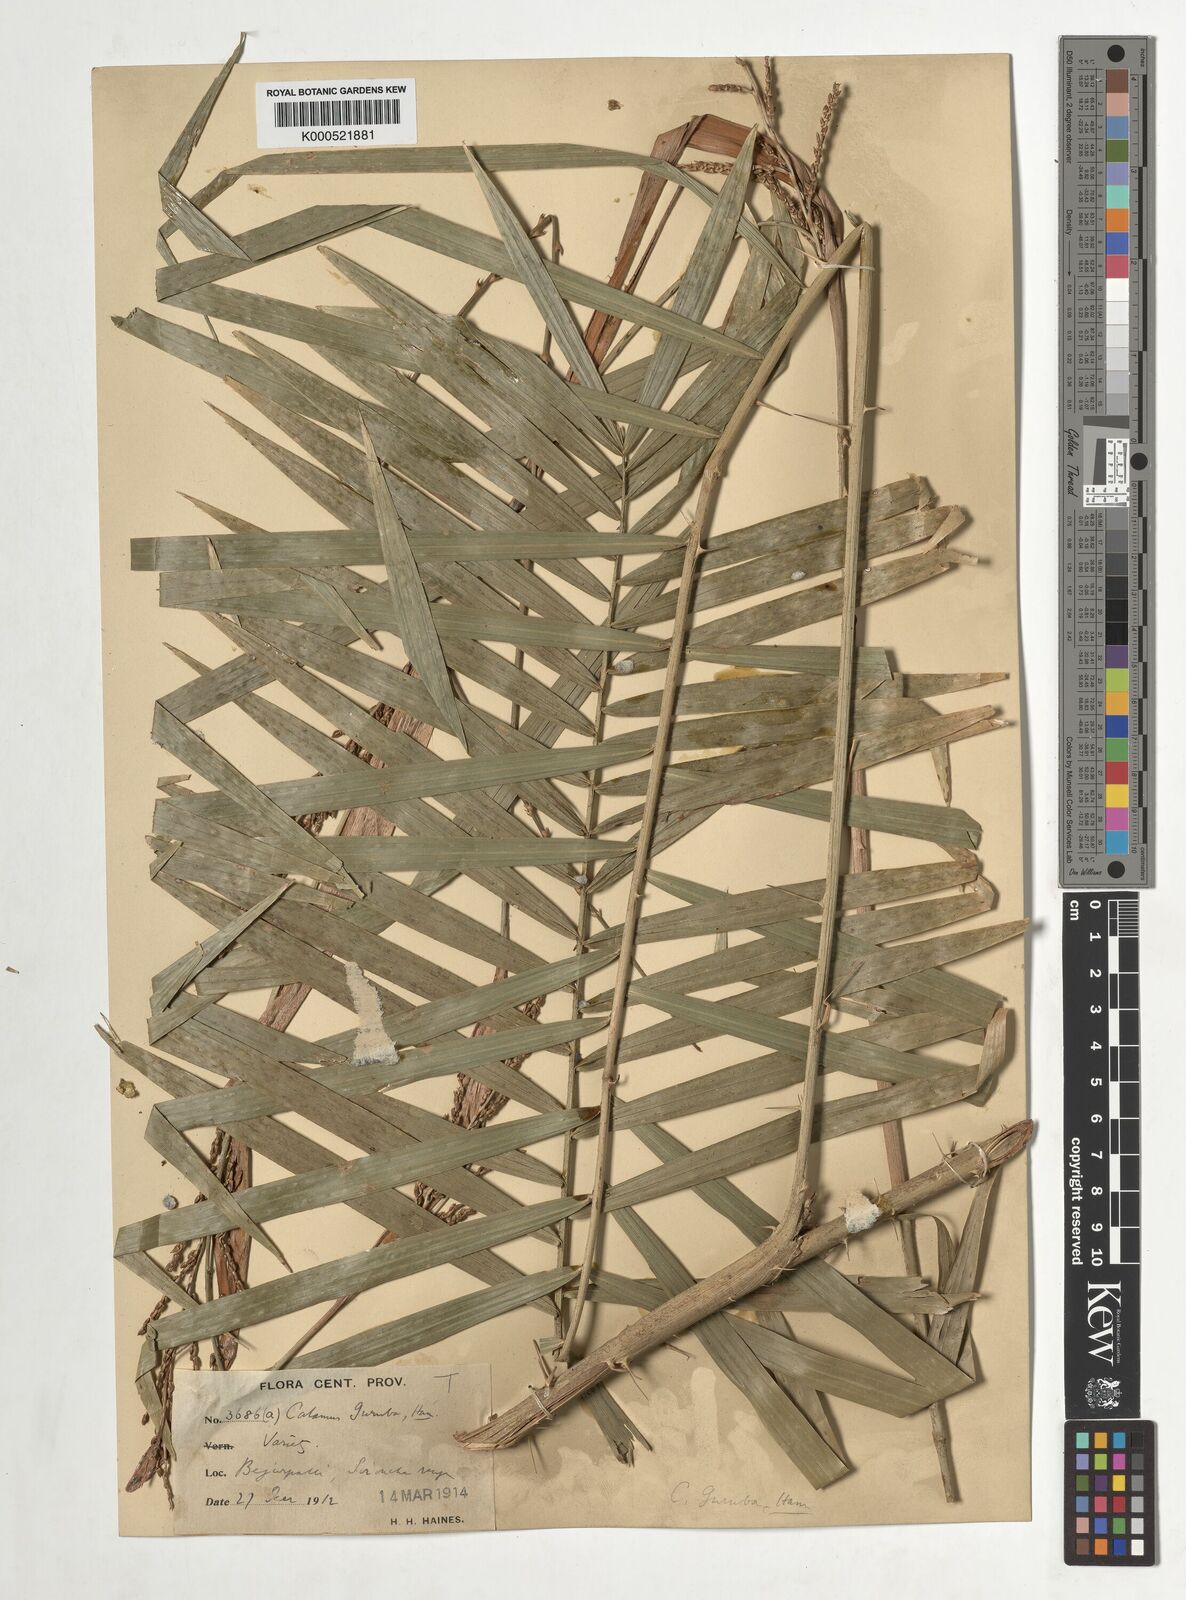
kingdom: Plantae
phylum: Tracheophyta
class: Liliopsida
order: Arecales
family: Arecaceae
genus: Calamus
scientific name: Calamus
